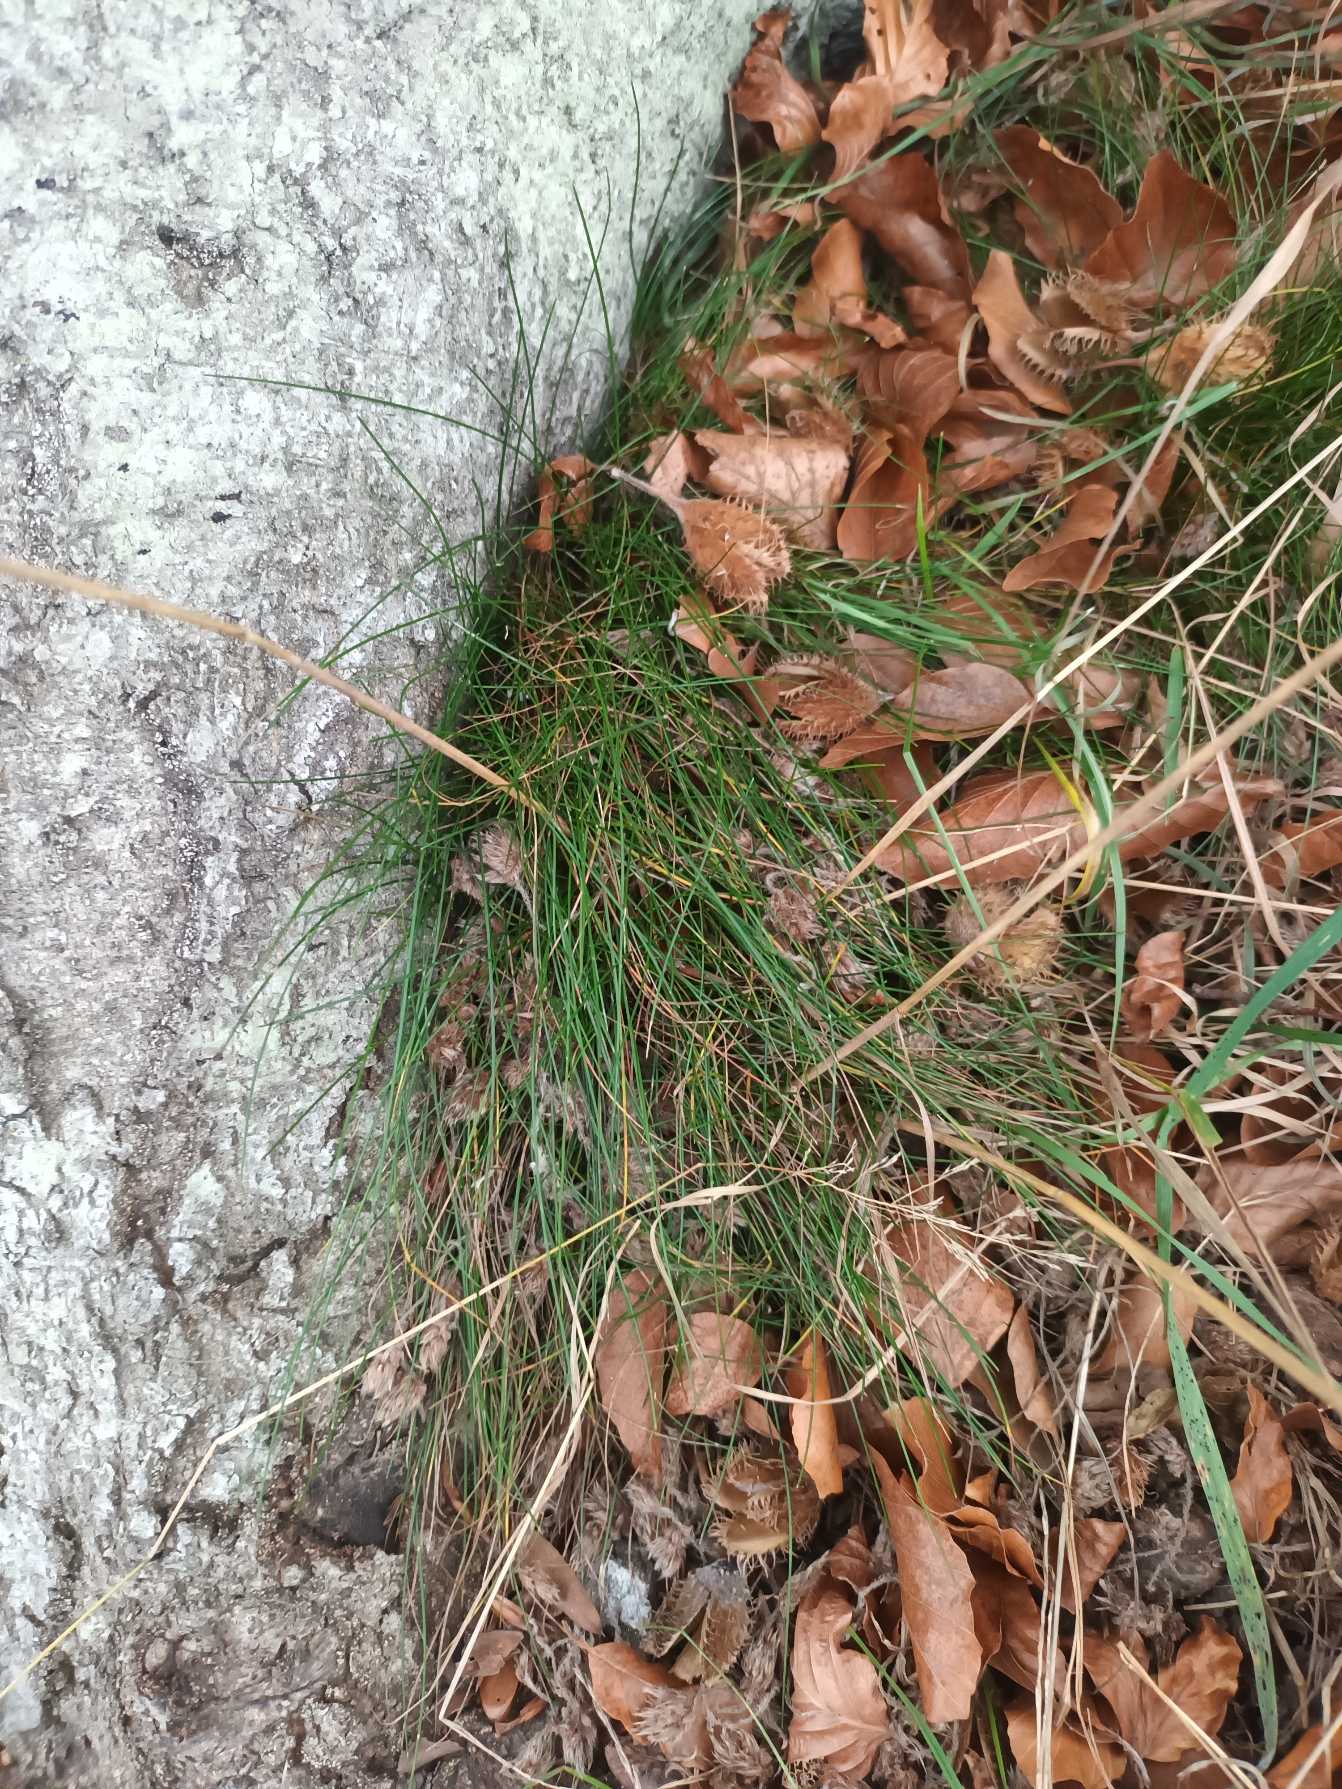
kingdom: Plantae
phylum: Tracheophyta
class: Liliopsida
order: Poales
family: Poaceae
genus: Avenella
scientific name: Avenella flexuosa
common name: Bølget bunke
